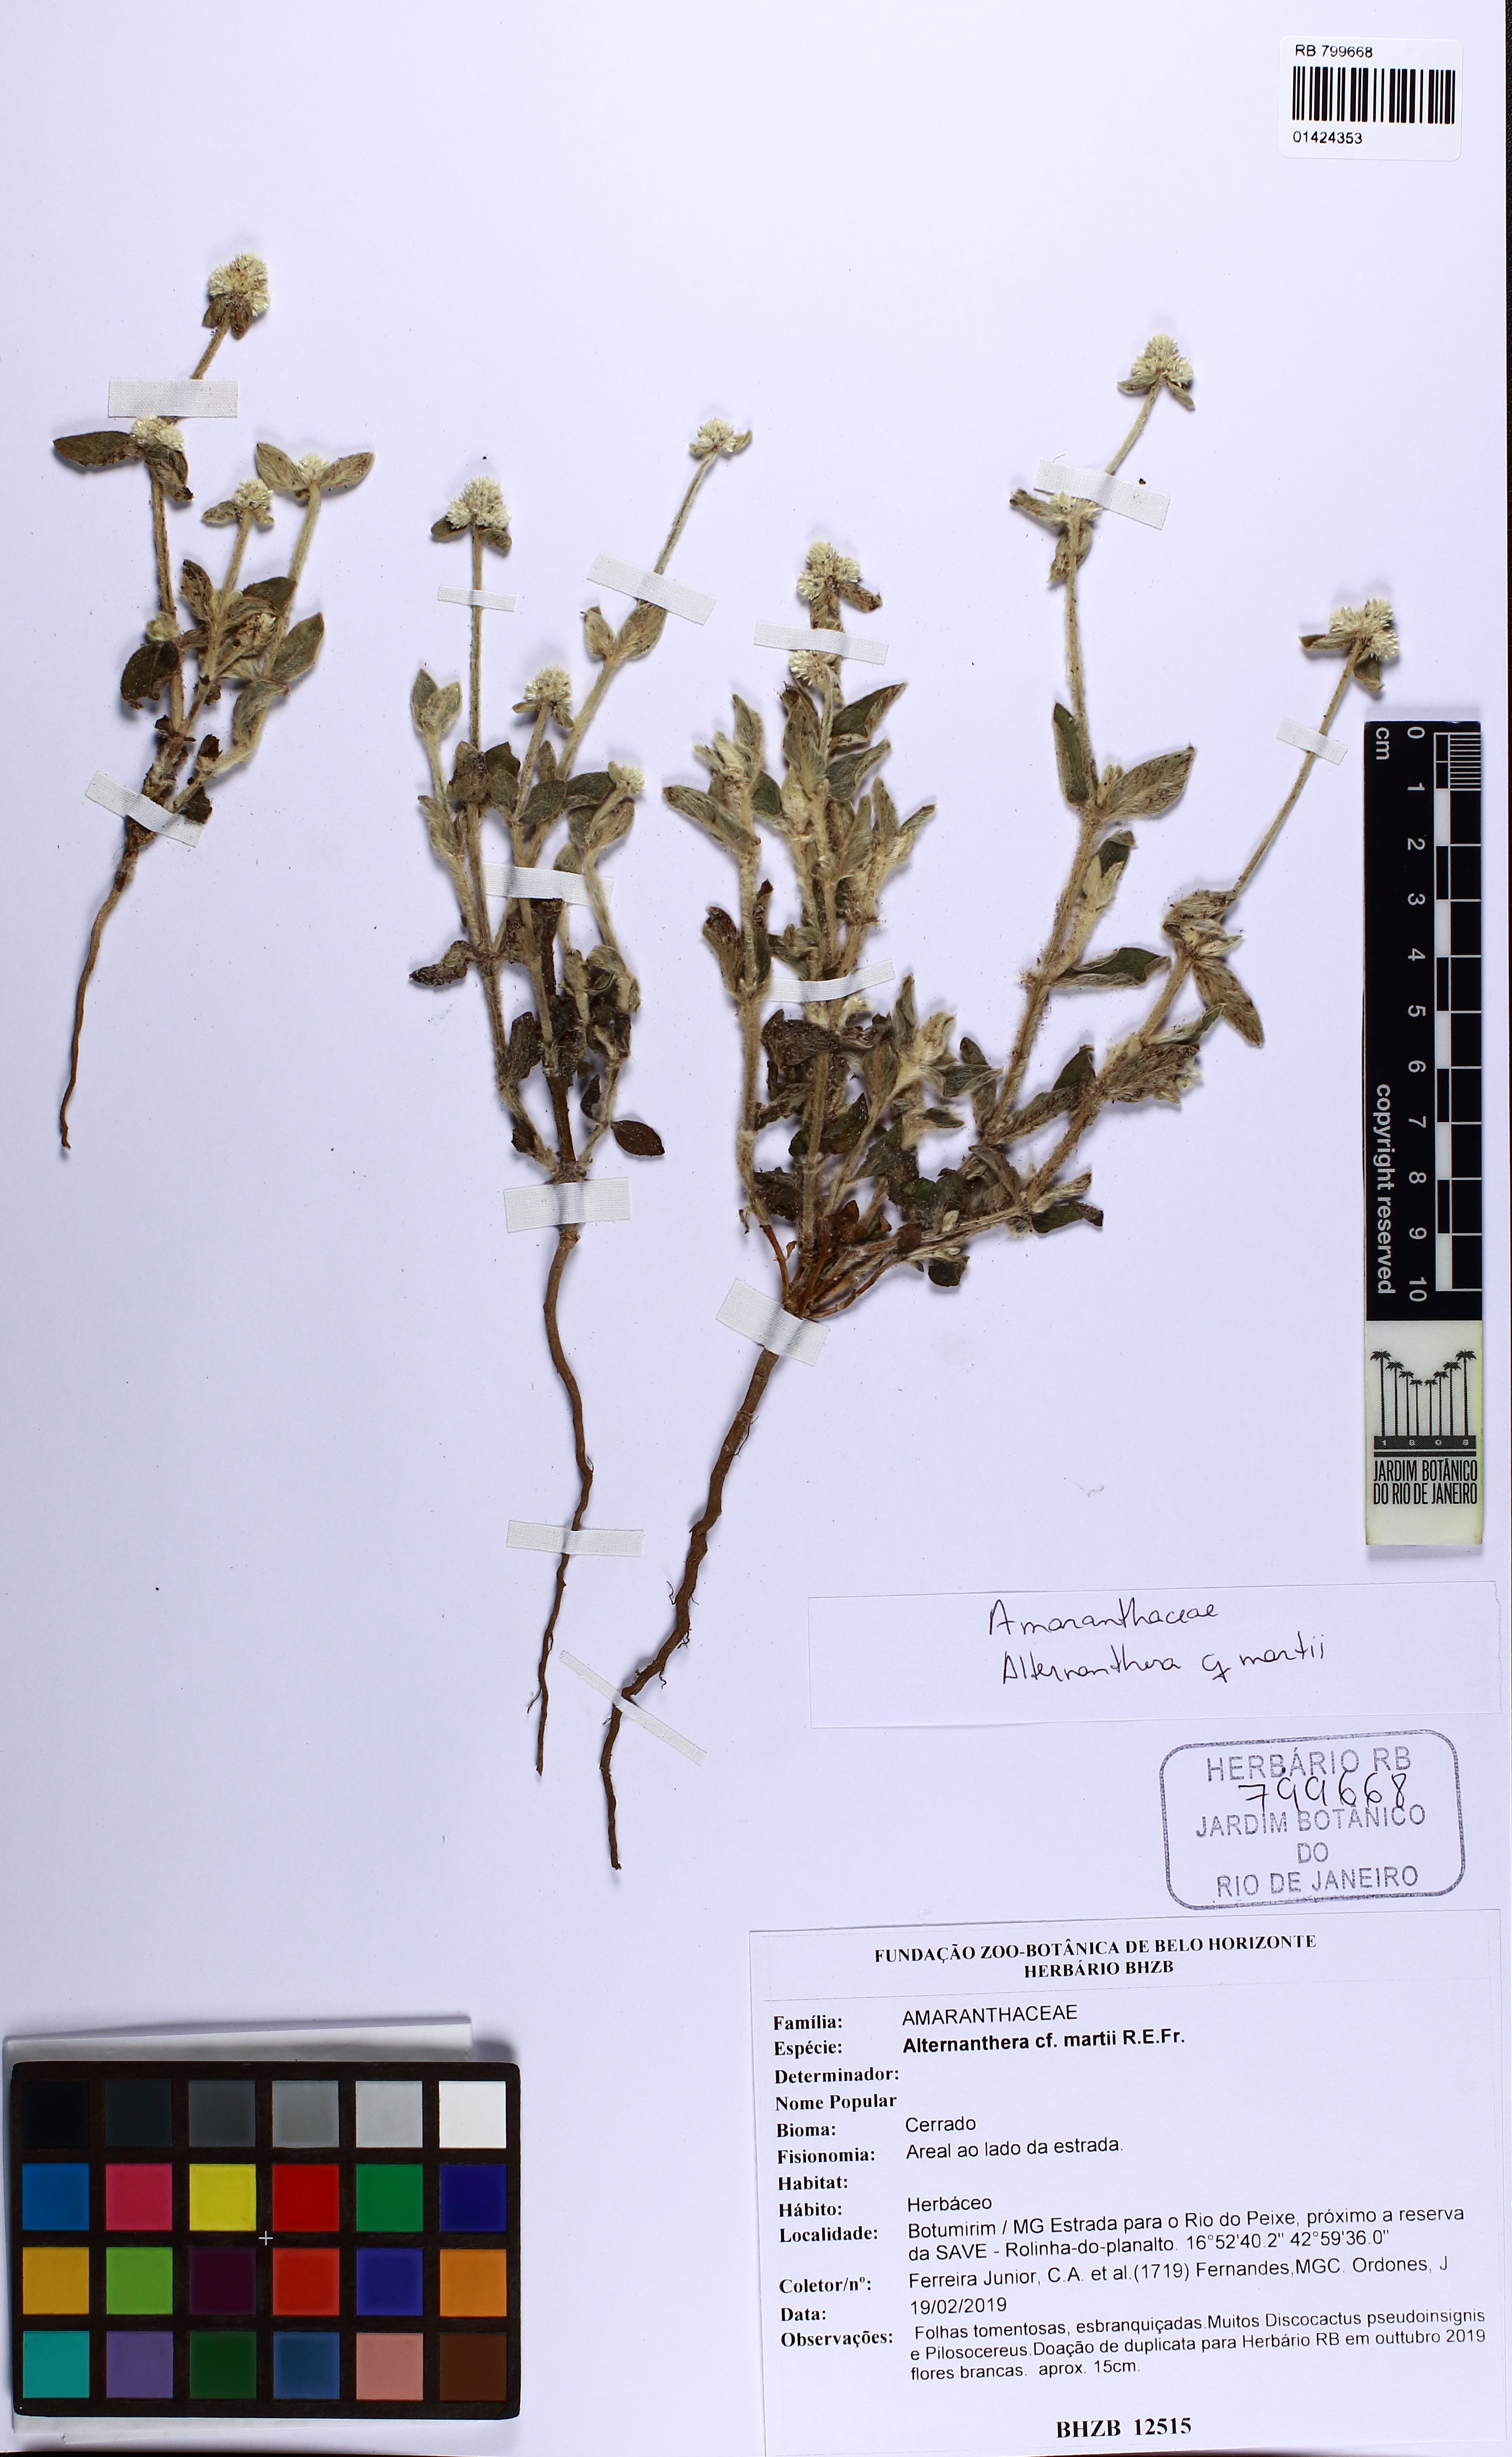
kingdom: Plantae
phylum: Tracheophyta
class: Magnoliopsida
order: Caryophyllales
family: Amaranthaceae
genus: Alternanthera
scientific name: Alternanthera martii
